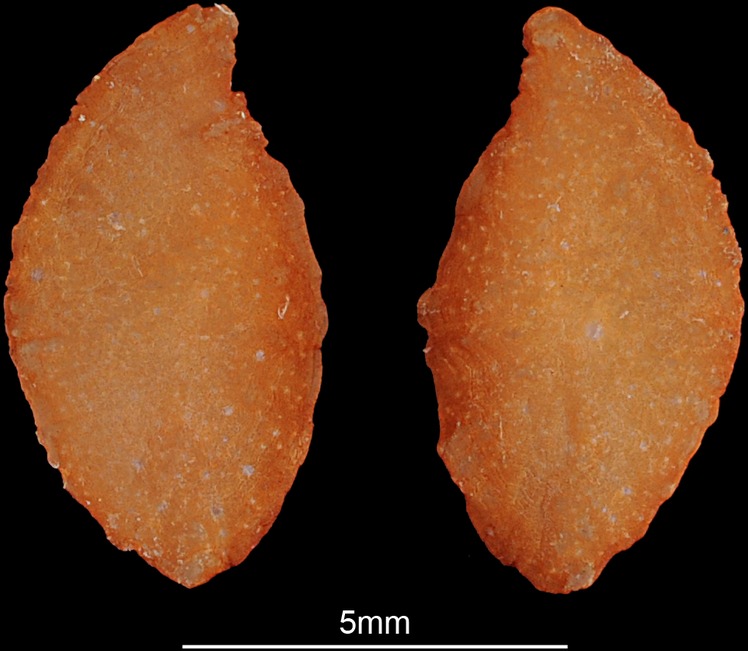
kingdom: Animalia
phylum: Chordata
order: Perciformes
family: Cichlidae
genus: Steatocranus
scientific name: Steatocranus casuarius
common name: Lionhead cichlid
